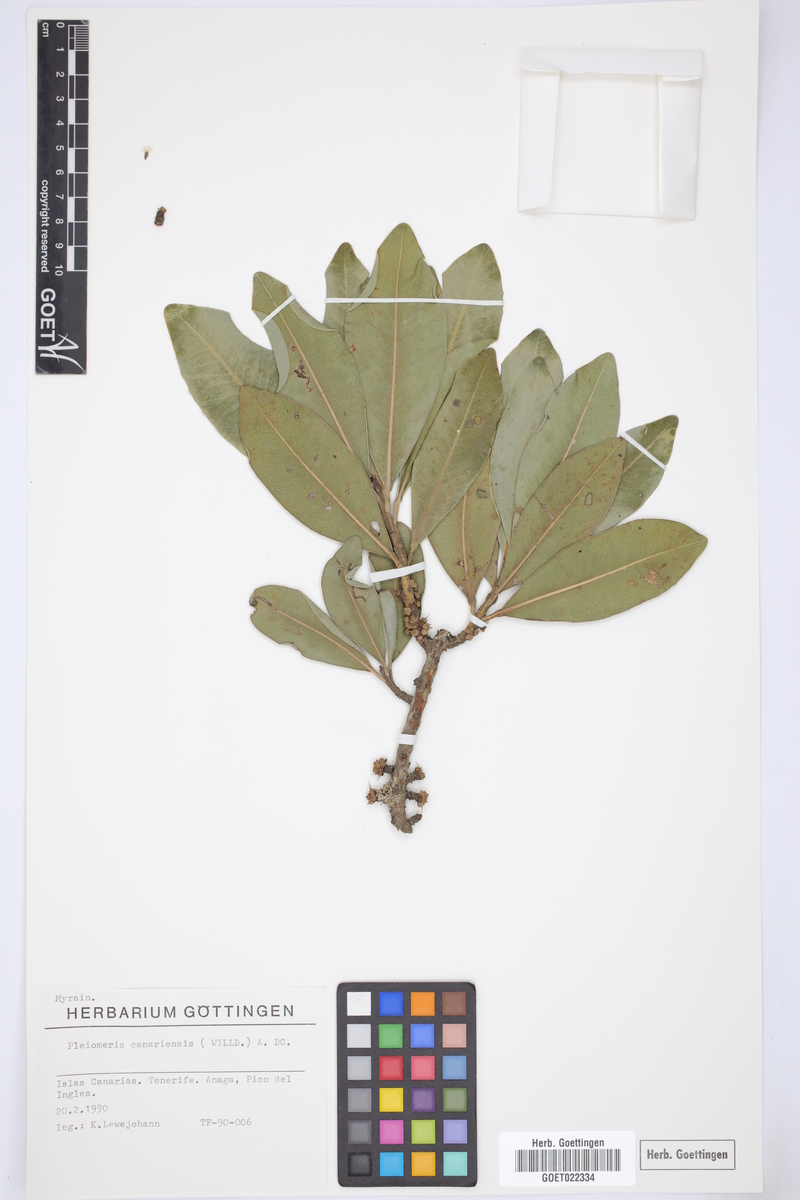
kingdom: Plantae
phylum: Tracheophyta
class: Magnoliopsida
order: Ericales
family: Primulaceae
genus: Pleiomeris
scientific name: Pleiomeris canariensis
